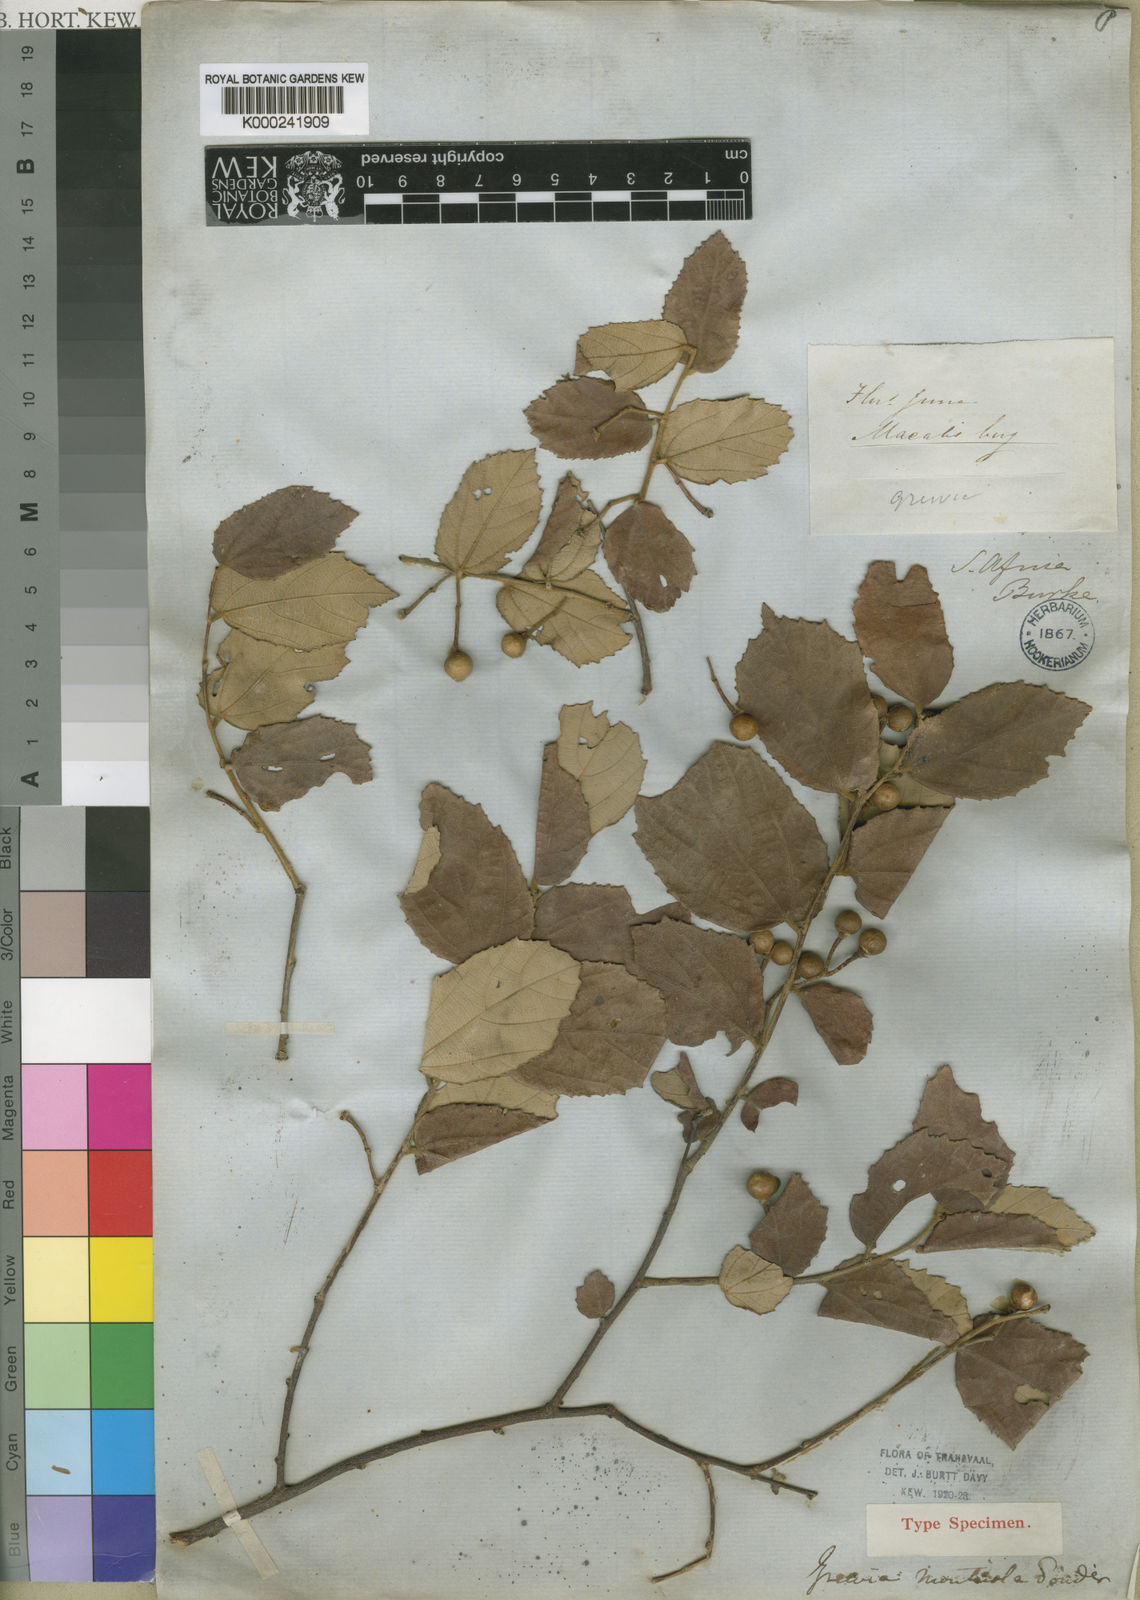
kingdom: Plantae
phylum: Tracheophyta
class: Magnoliopsida
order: Malvales
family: Malvaceae
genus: Grewia
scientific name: Grewia monticola
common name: Grey raisin
